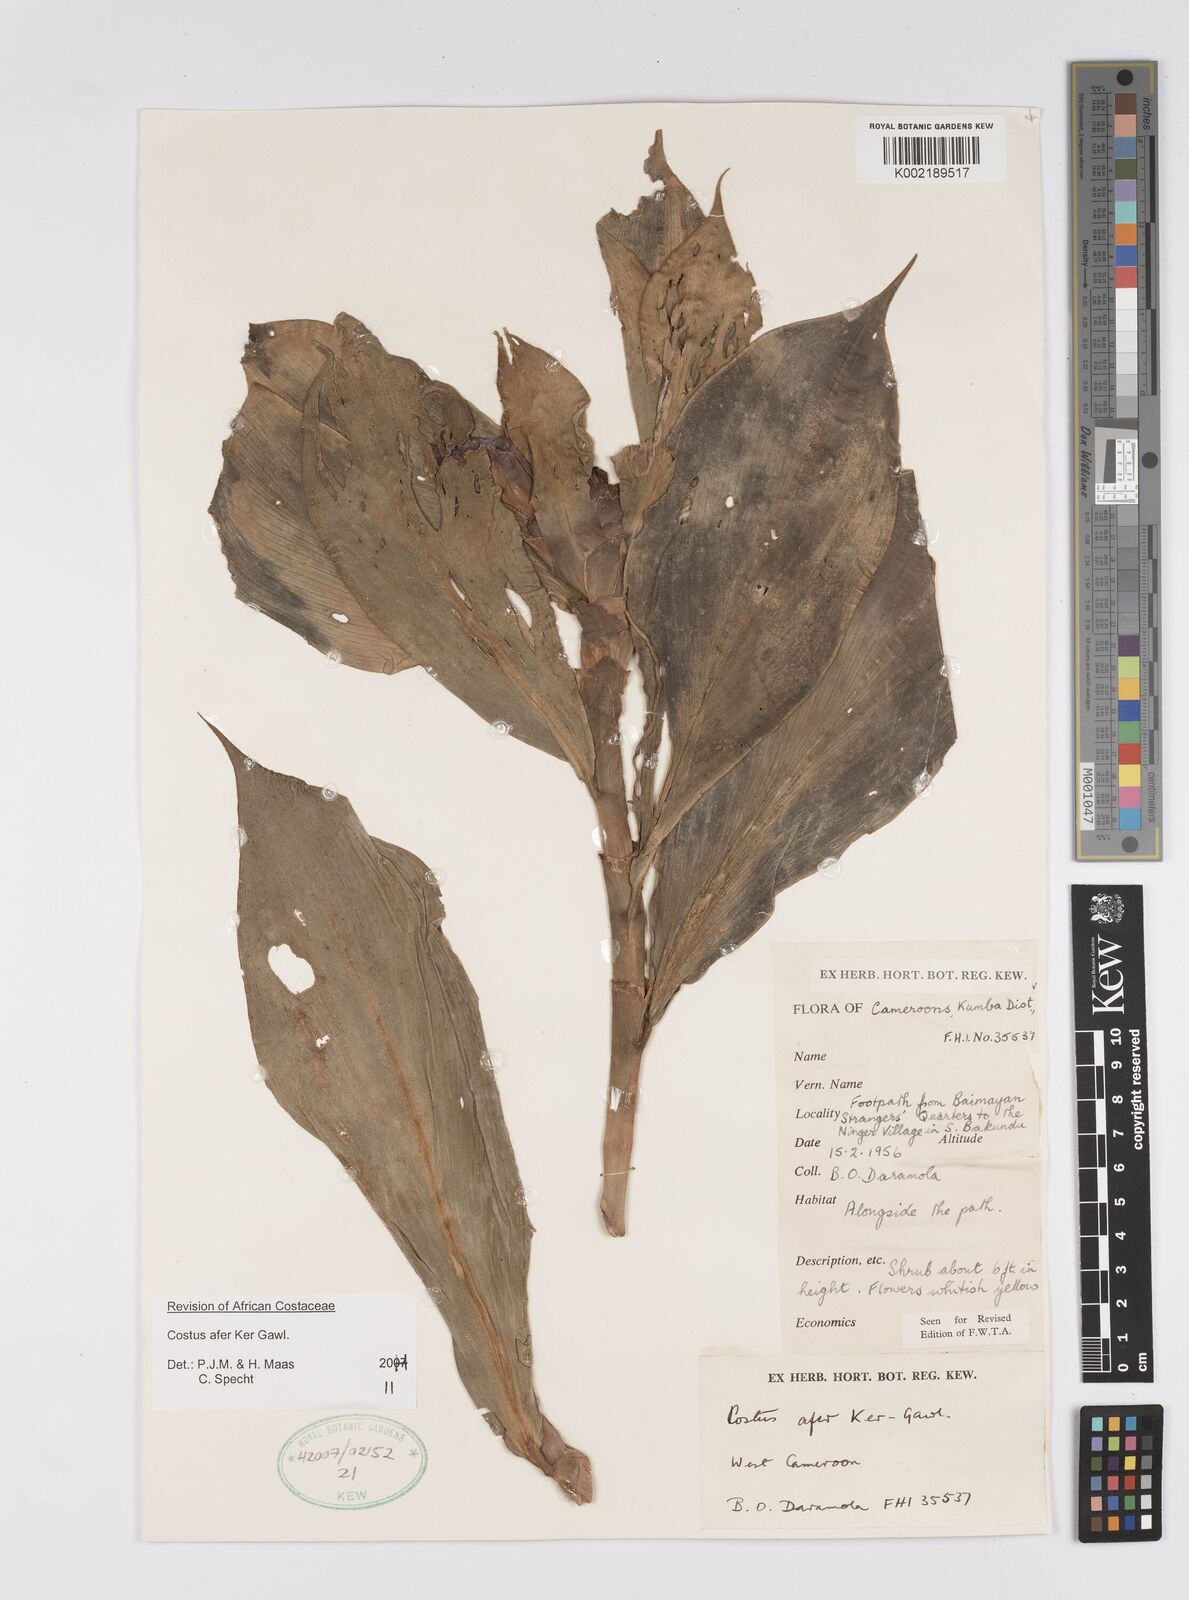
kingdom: Plantae
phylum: Tracheophyta
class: Liliopsida
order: Zingiberales
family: Costaceae
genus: Costus
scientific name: Costus afer
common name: Spiral-ginger
